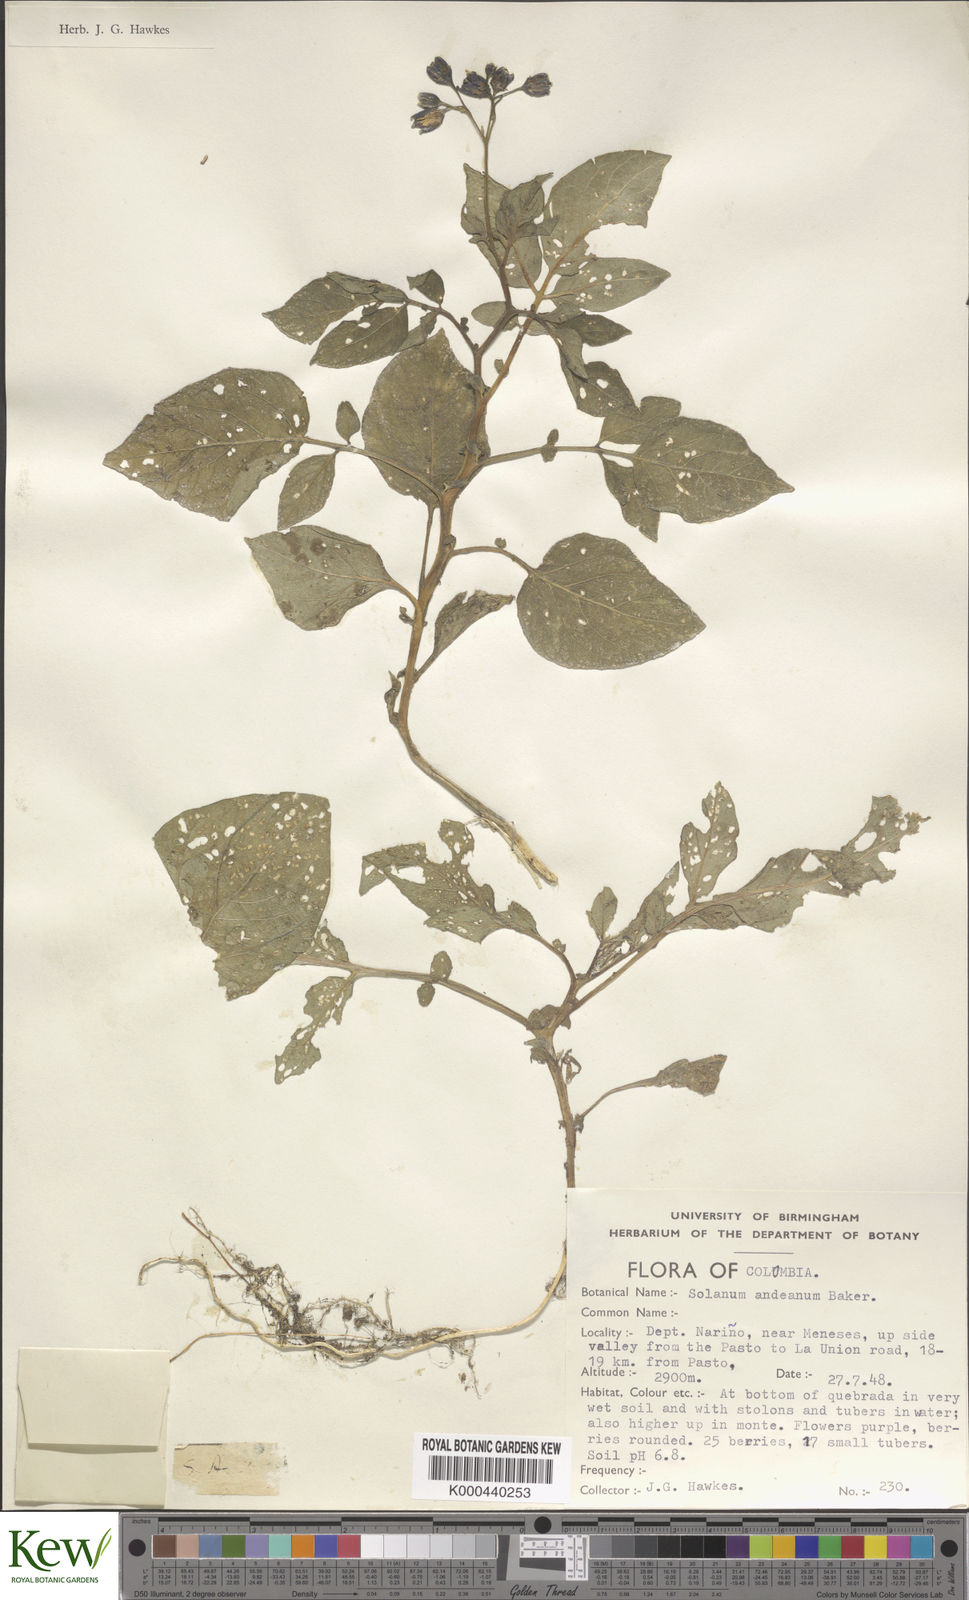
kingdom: Plantae
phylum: Tracheophyta
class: Magnoliopsida
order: Solanales
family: Solanaceae
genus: Solanum
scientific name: Solanum andreanum
